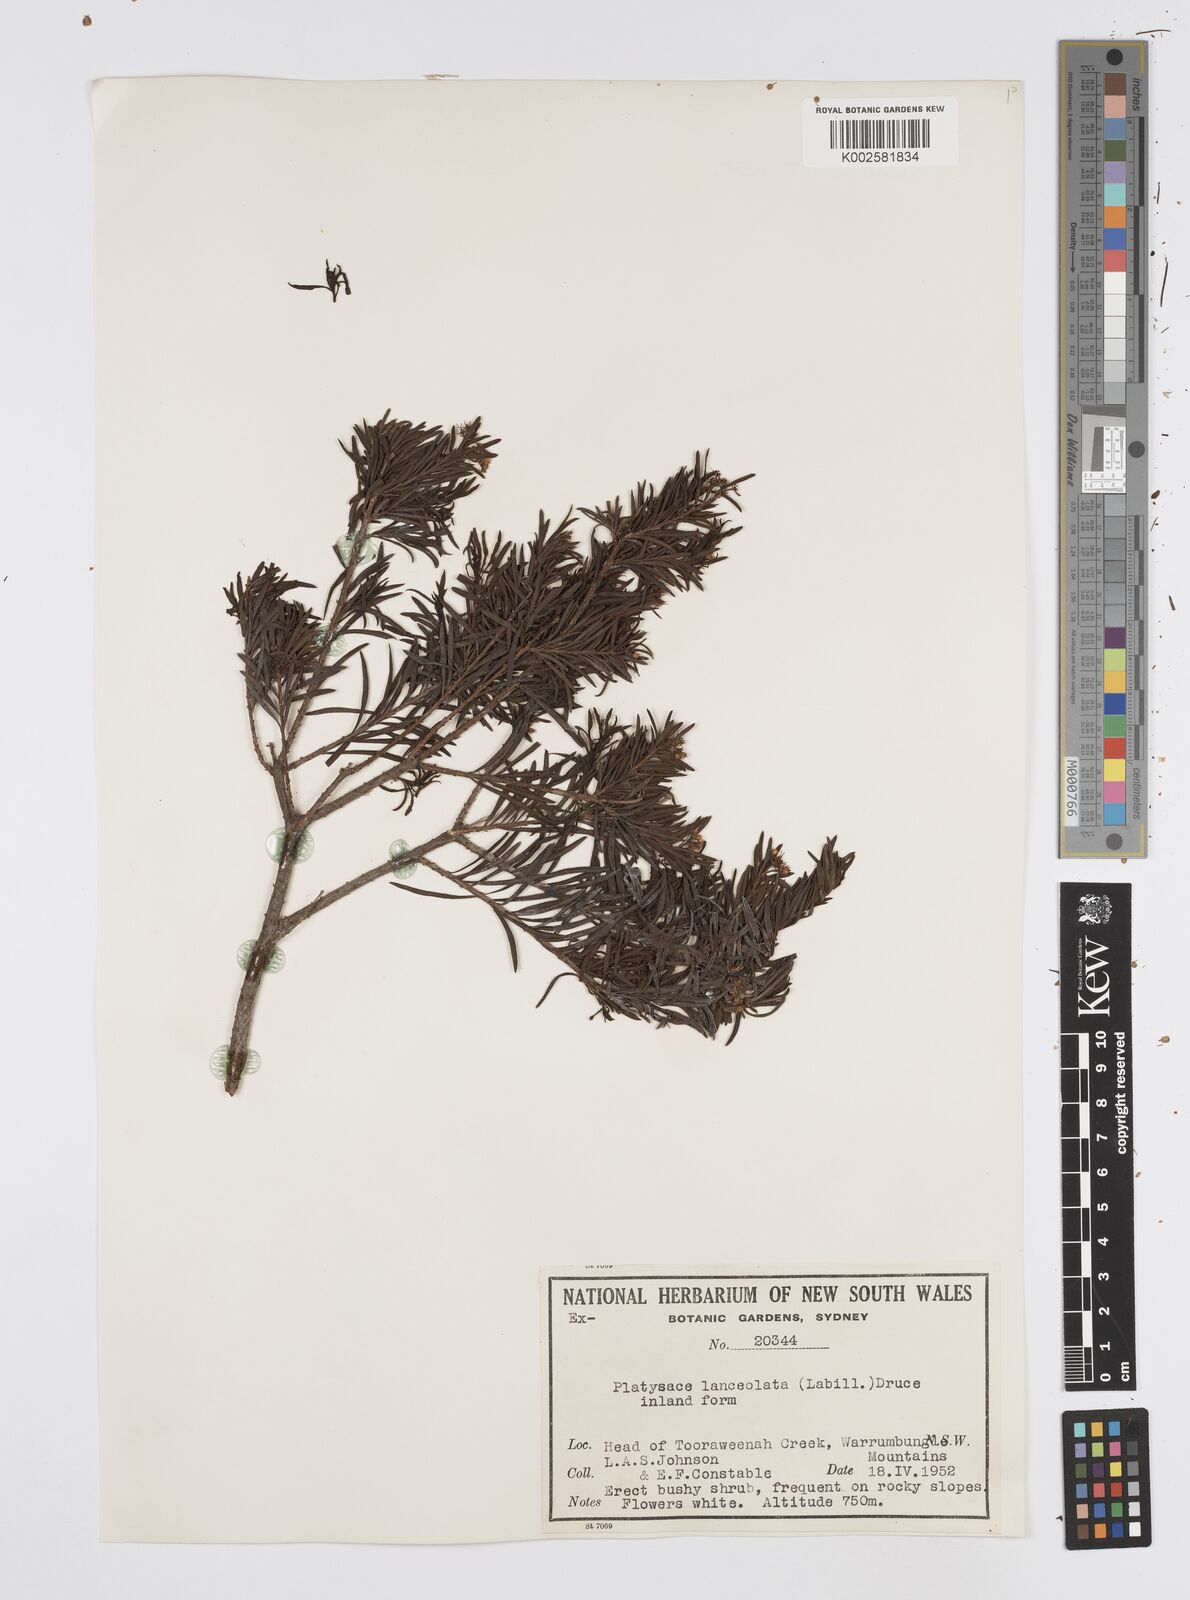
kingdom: Plantae
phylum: Tracheophyta
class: Magnoliopsida
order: Apiales
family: Apiaceae
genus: Platysace
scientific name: Platysace lanceolata
